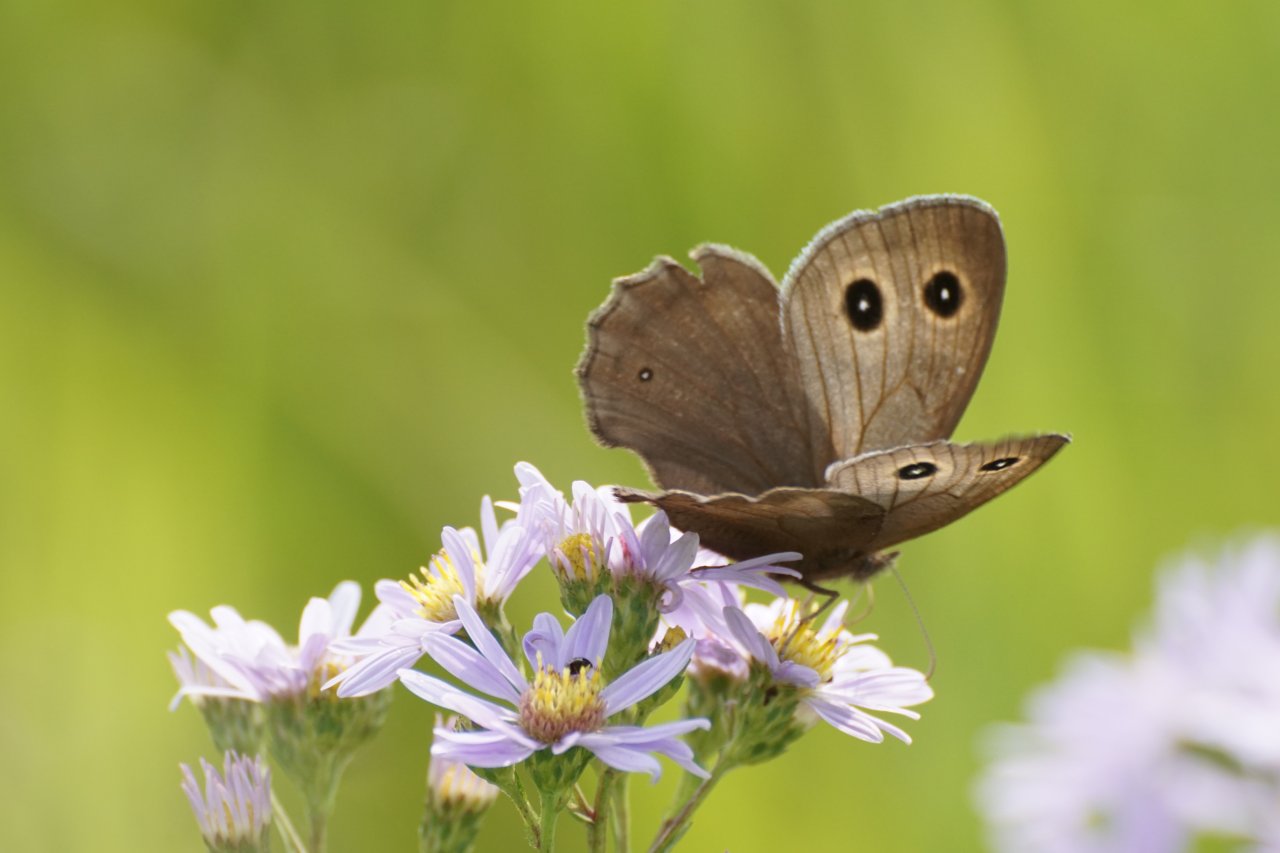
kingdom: Animalia
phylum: Arthropoda
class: Insecta
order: Lepidoptera
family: Nymphalidae
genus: Cercyonis
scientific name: Cercyonis pegala
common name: Common Wood-Nymph
